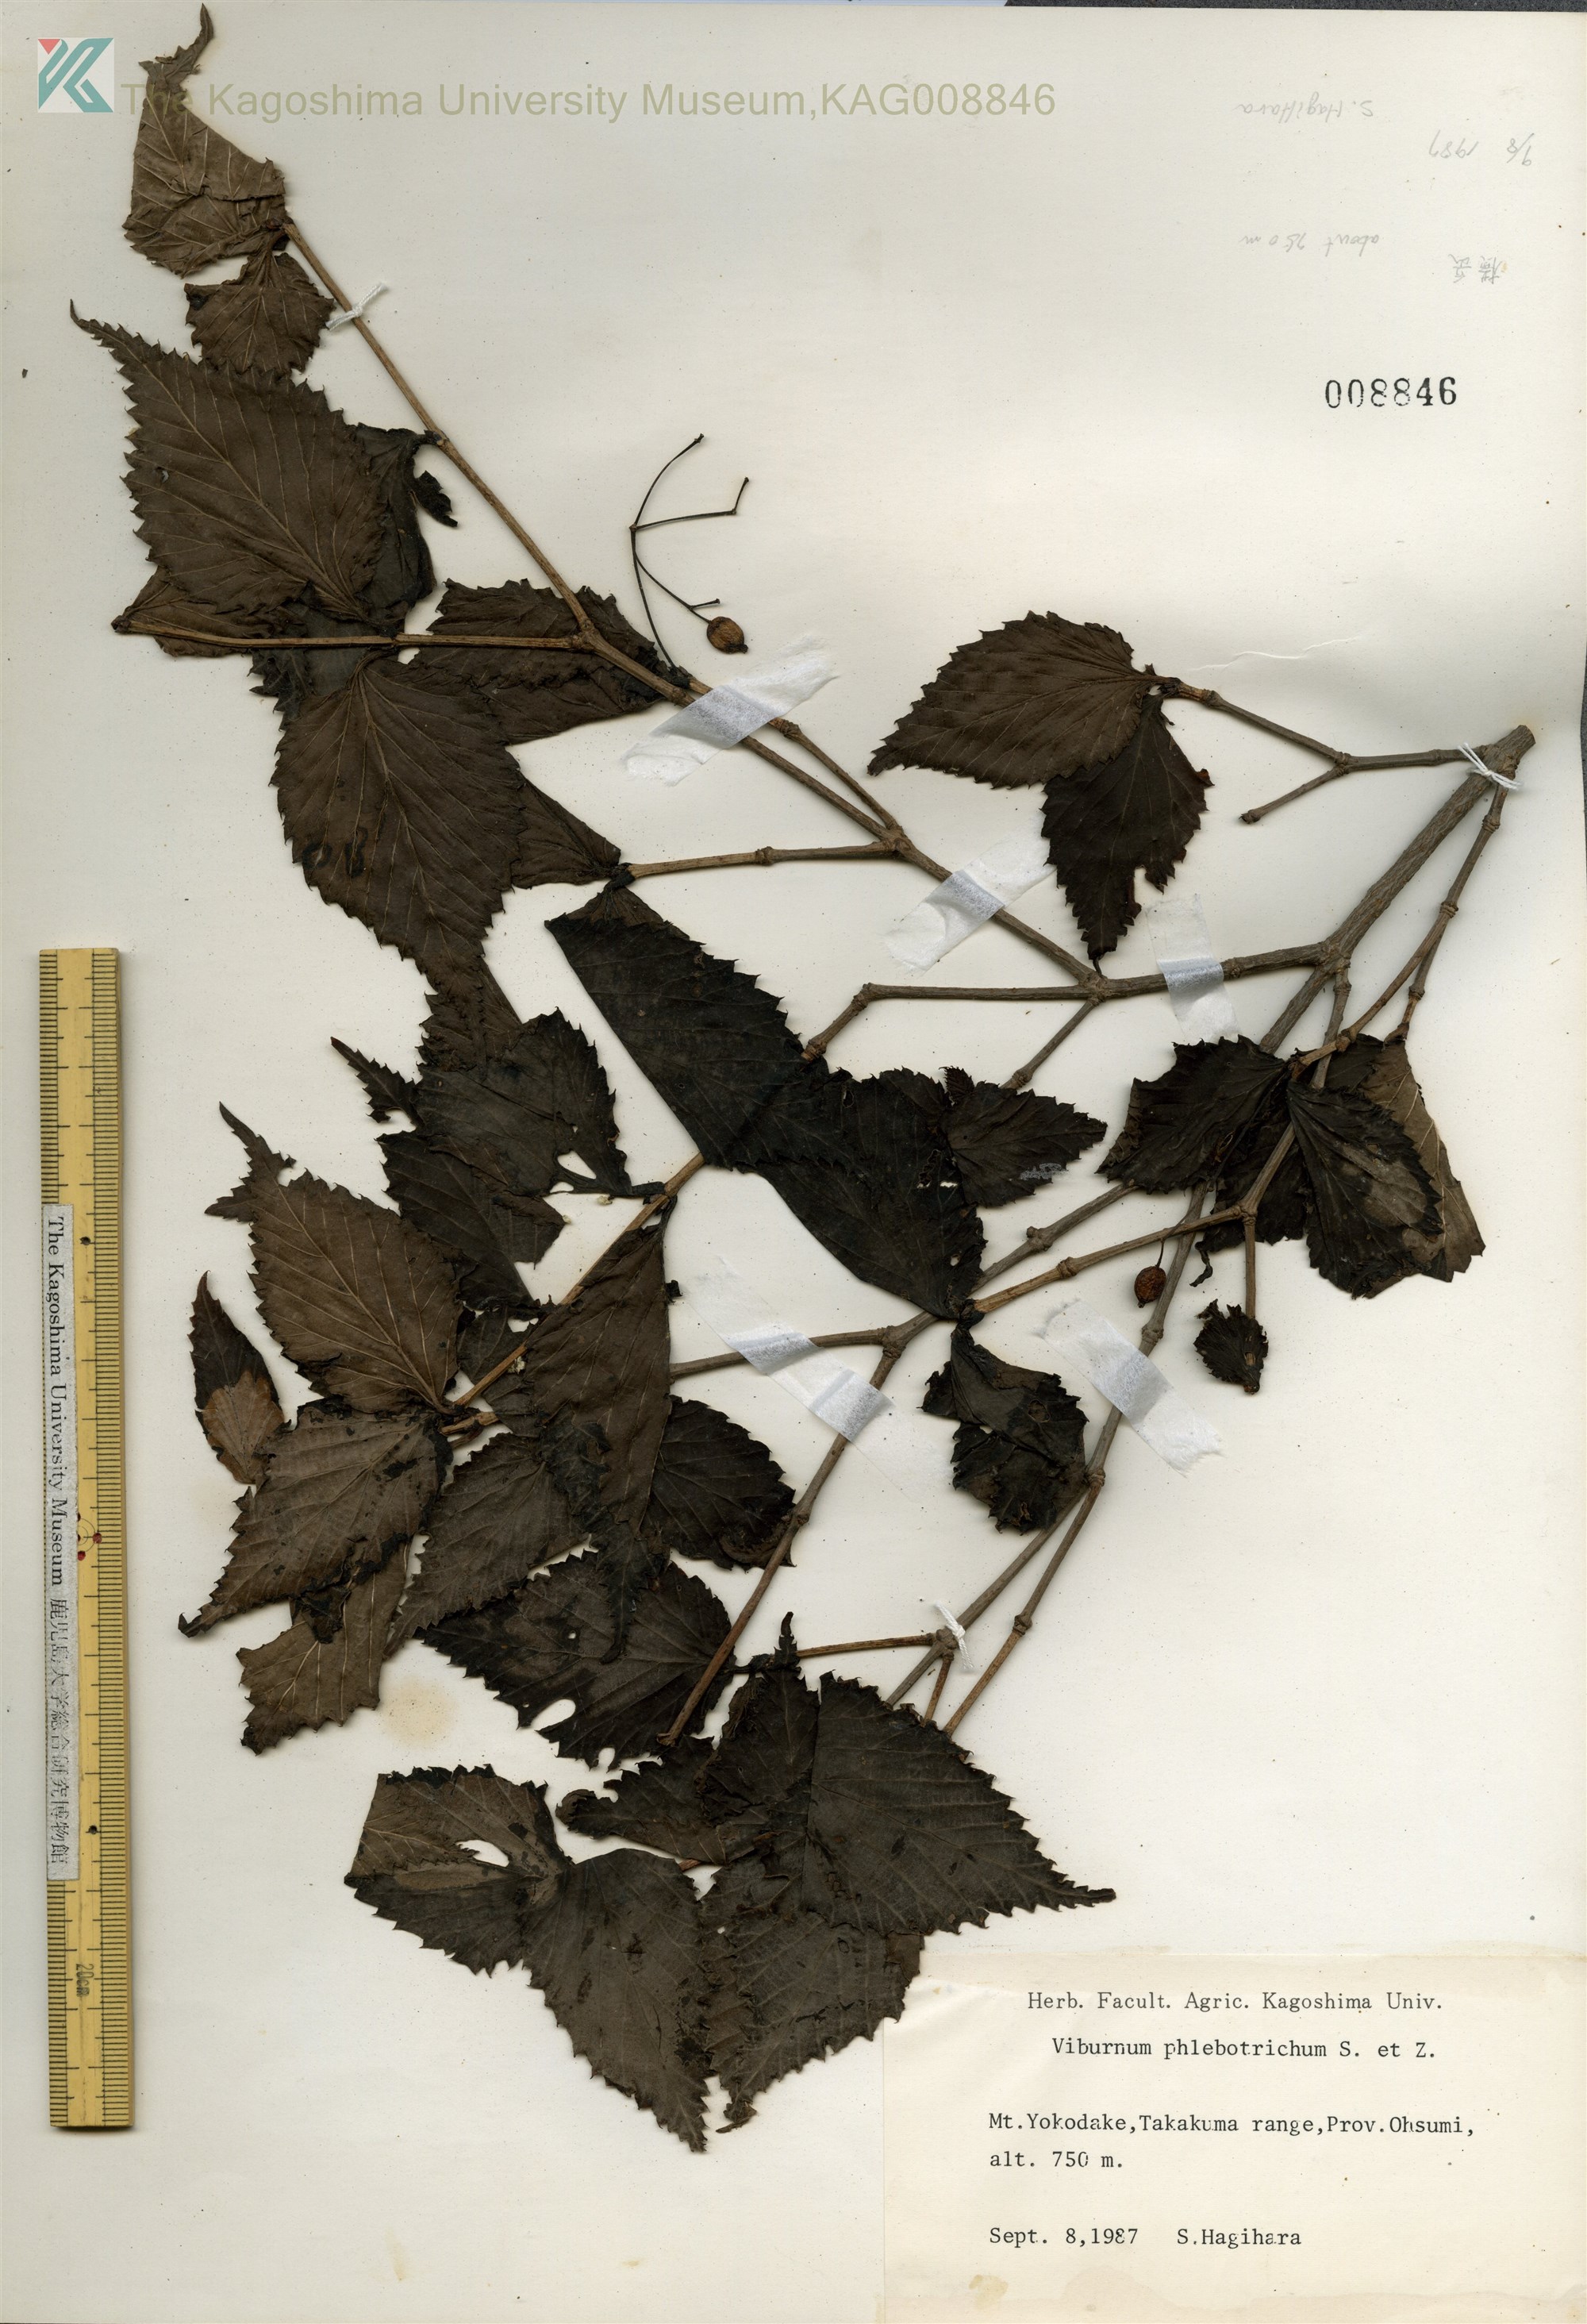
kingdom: Plantae
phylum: Tracheophyta
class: Magnoliopsida
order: Dipsacales
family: Viburnaceae
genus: Viburnum
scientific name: Viburnum phlebotrichum
